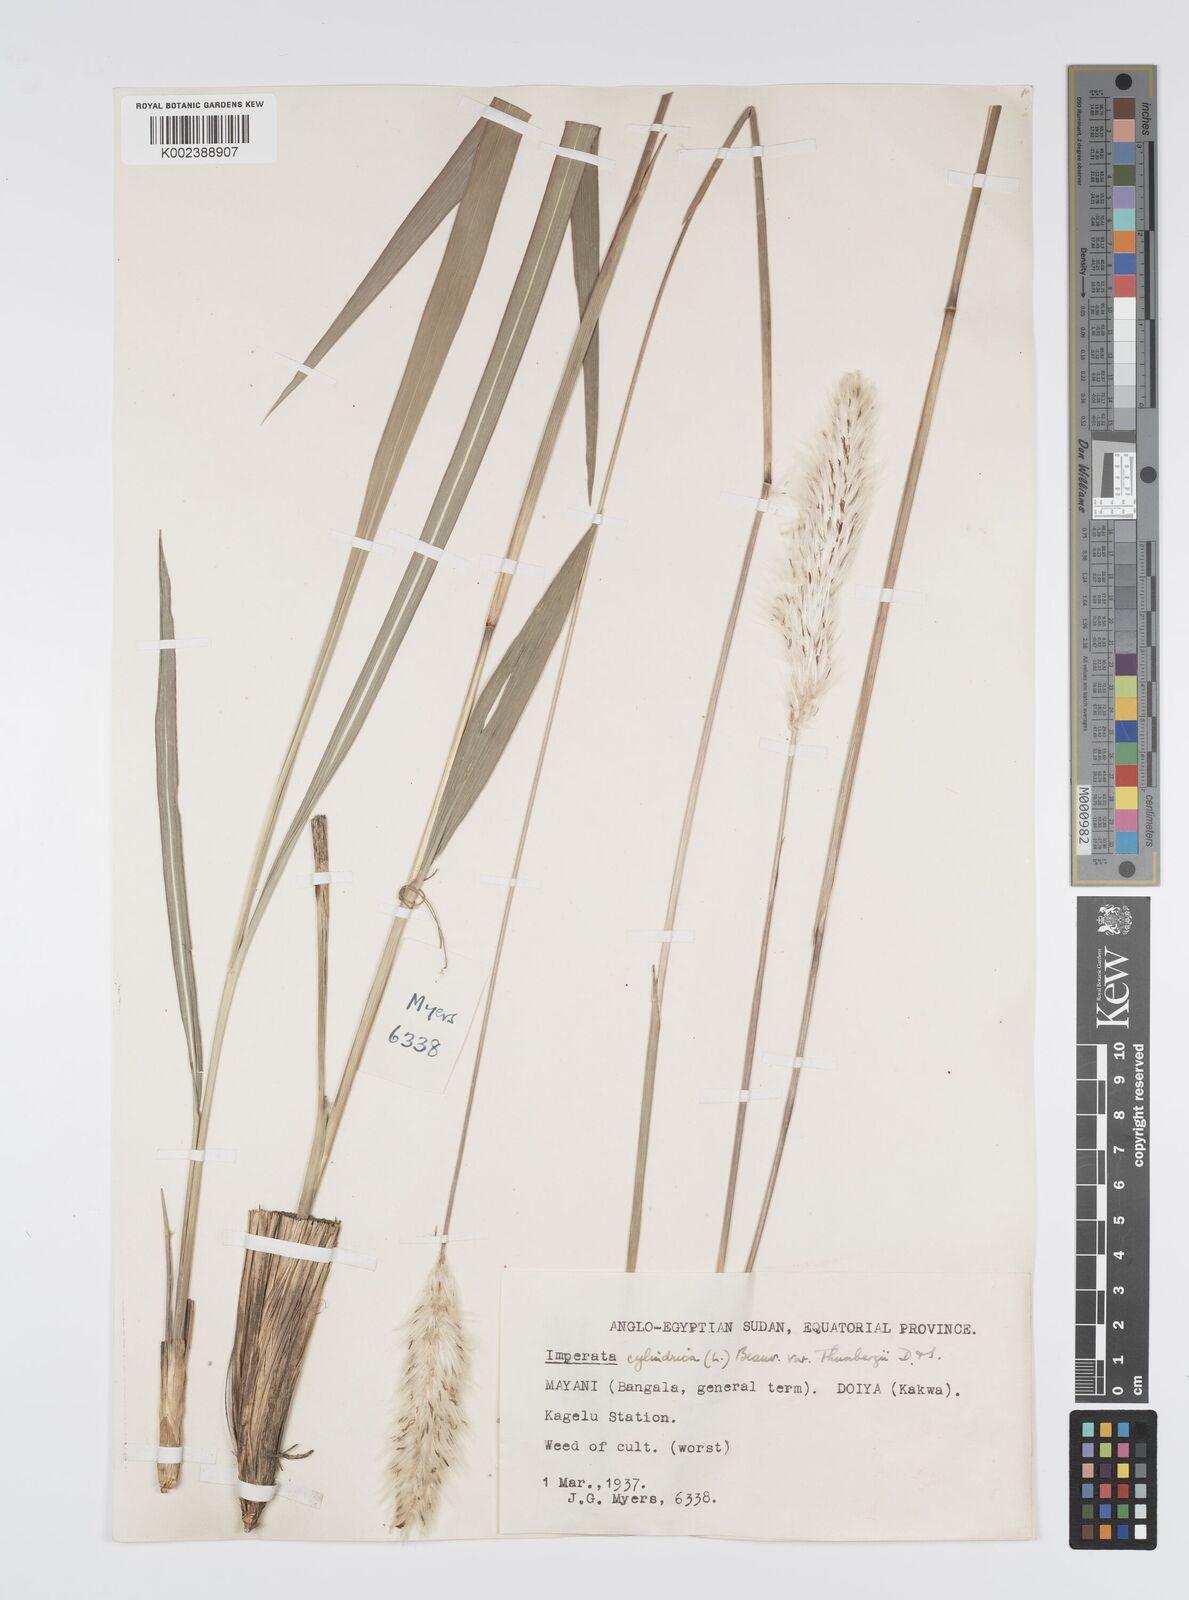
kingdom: Plantae
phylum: Tracheophyta
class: Liliopsida
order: Poales
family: Poaceae
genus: Imperata
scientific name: Imperata cylindrica
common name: Cogongrass
